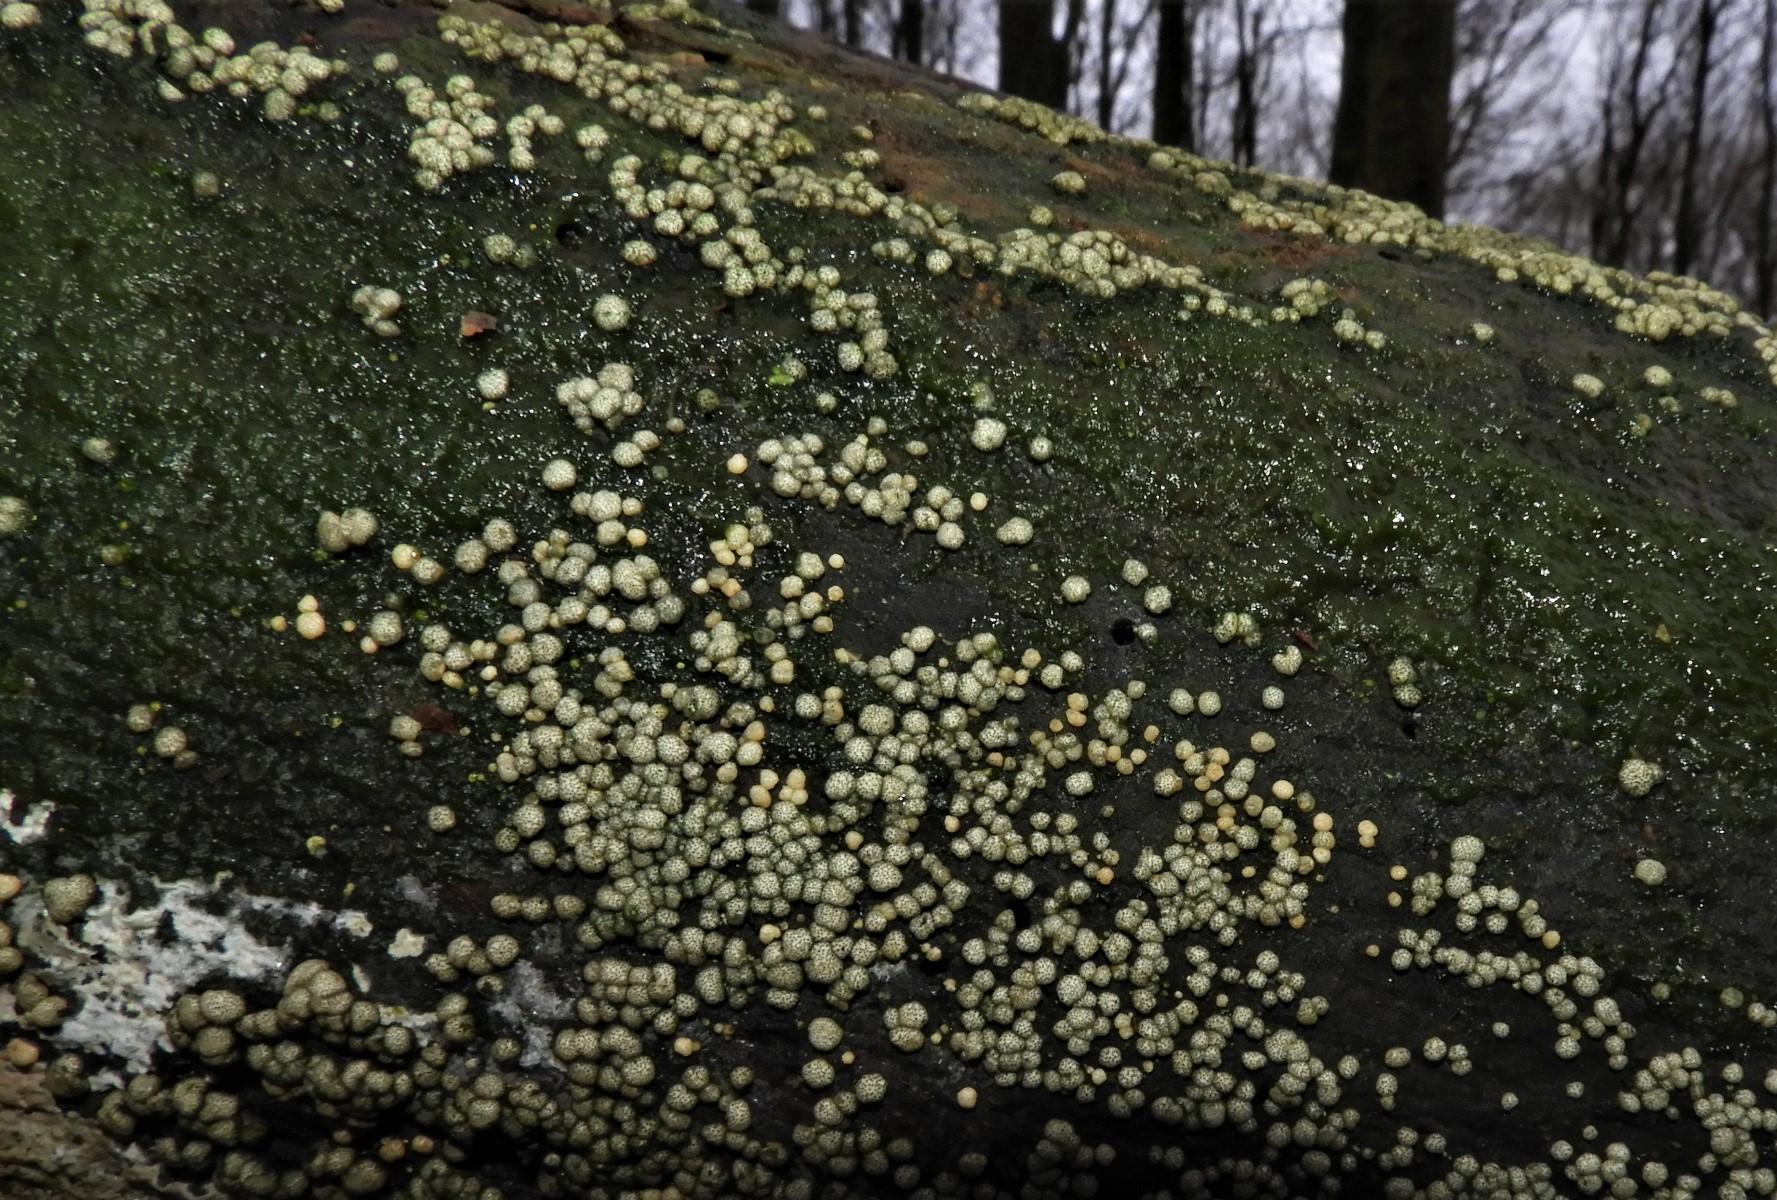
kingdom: Fungi
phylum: Ascomycota
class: Sordariomycetes
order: Hypocreales
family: Hypocreaceae
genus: Trichoderma
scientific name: Trichoderma strictipile
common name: grønprikket kødkerne
